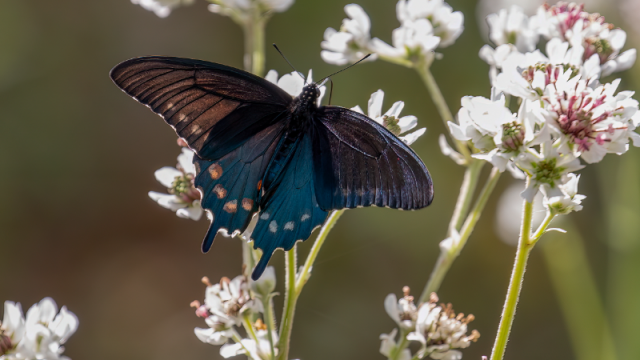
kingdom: Animalia
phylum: Arthropoda
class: Insecta
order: Lepidoptera
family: Papilionidae
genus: Battus
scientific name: Battus philenor
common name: Pipevine Swallowtail
